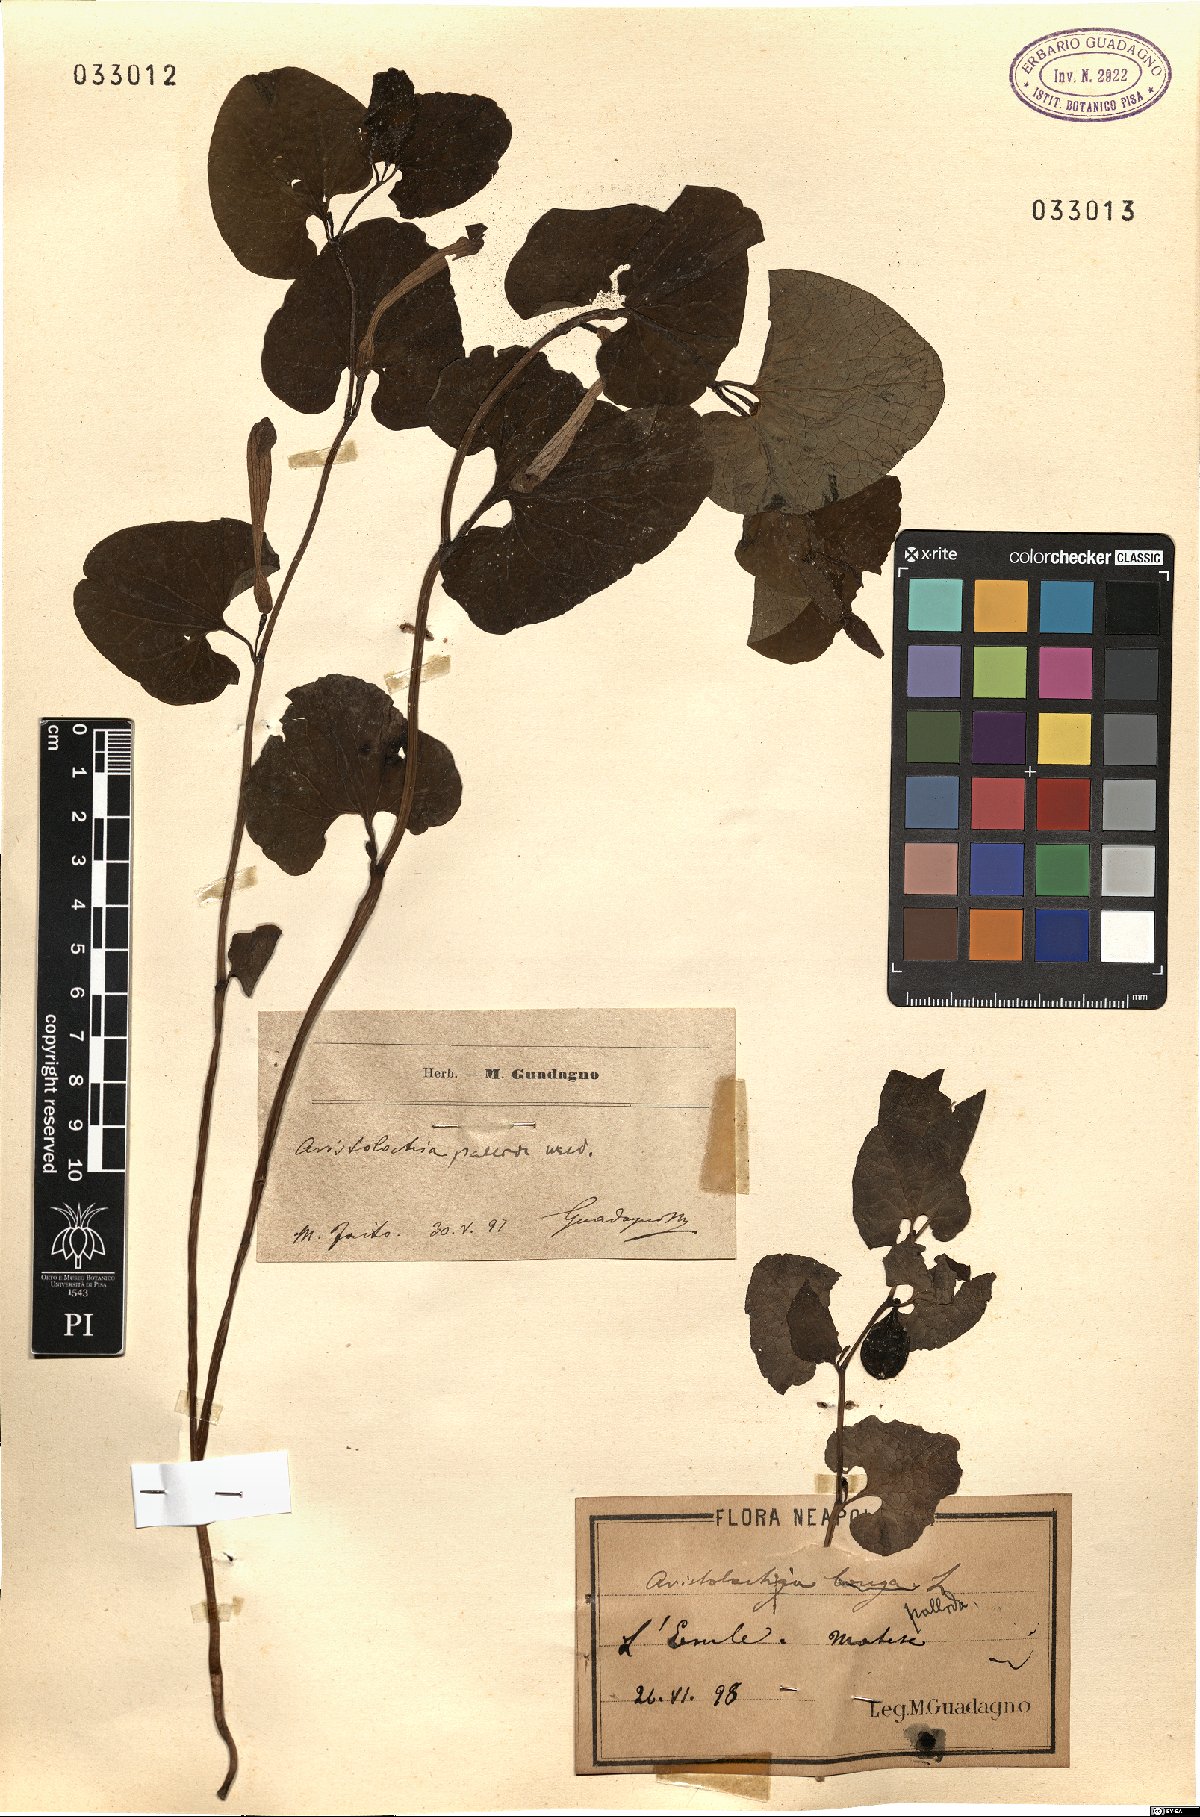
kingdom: Plantae
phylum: Tracheophyta
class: Magnoliopsida
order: Piperales
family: Aristolochiaceae
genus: Aristolochia
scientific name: Aristolochia pallida
